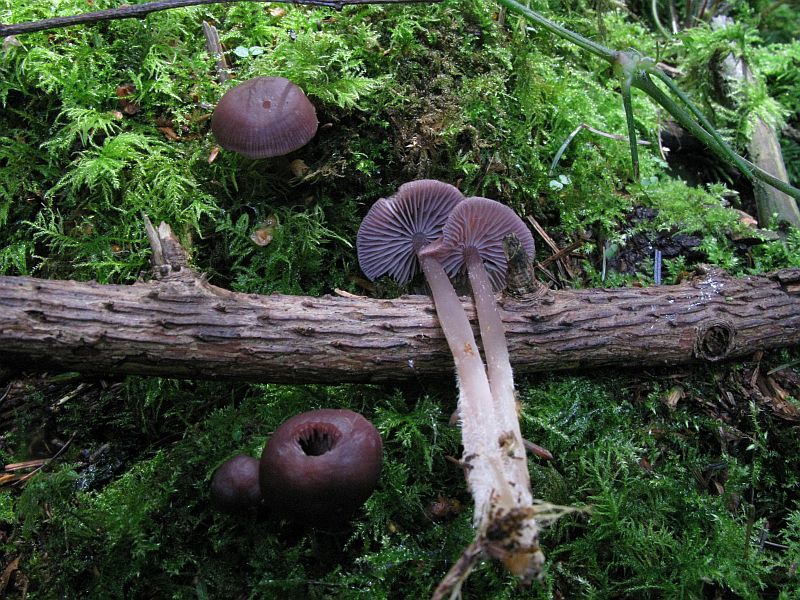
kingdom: Fungi
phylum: Basidiomycota
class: Agaricomycetes
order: Agaricales
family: Mycenaceae
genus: Prunulus
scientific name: Prunulus diosmus
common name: tobaks-huesvamp
